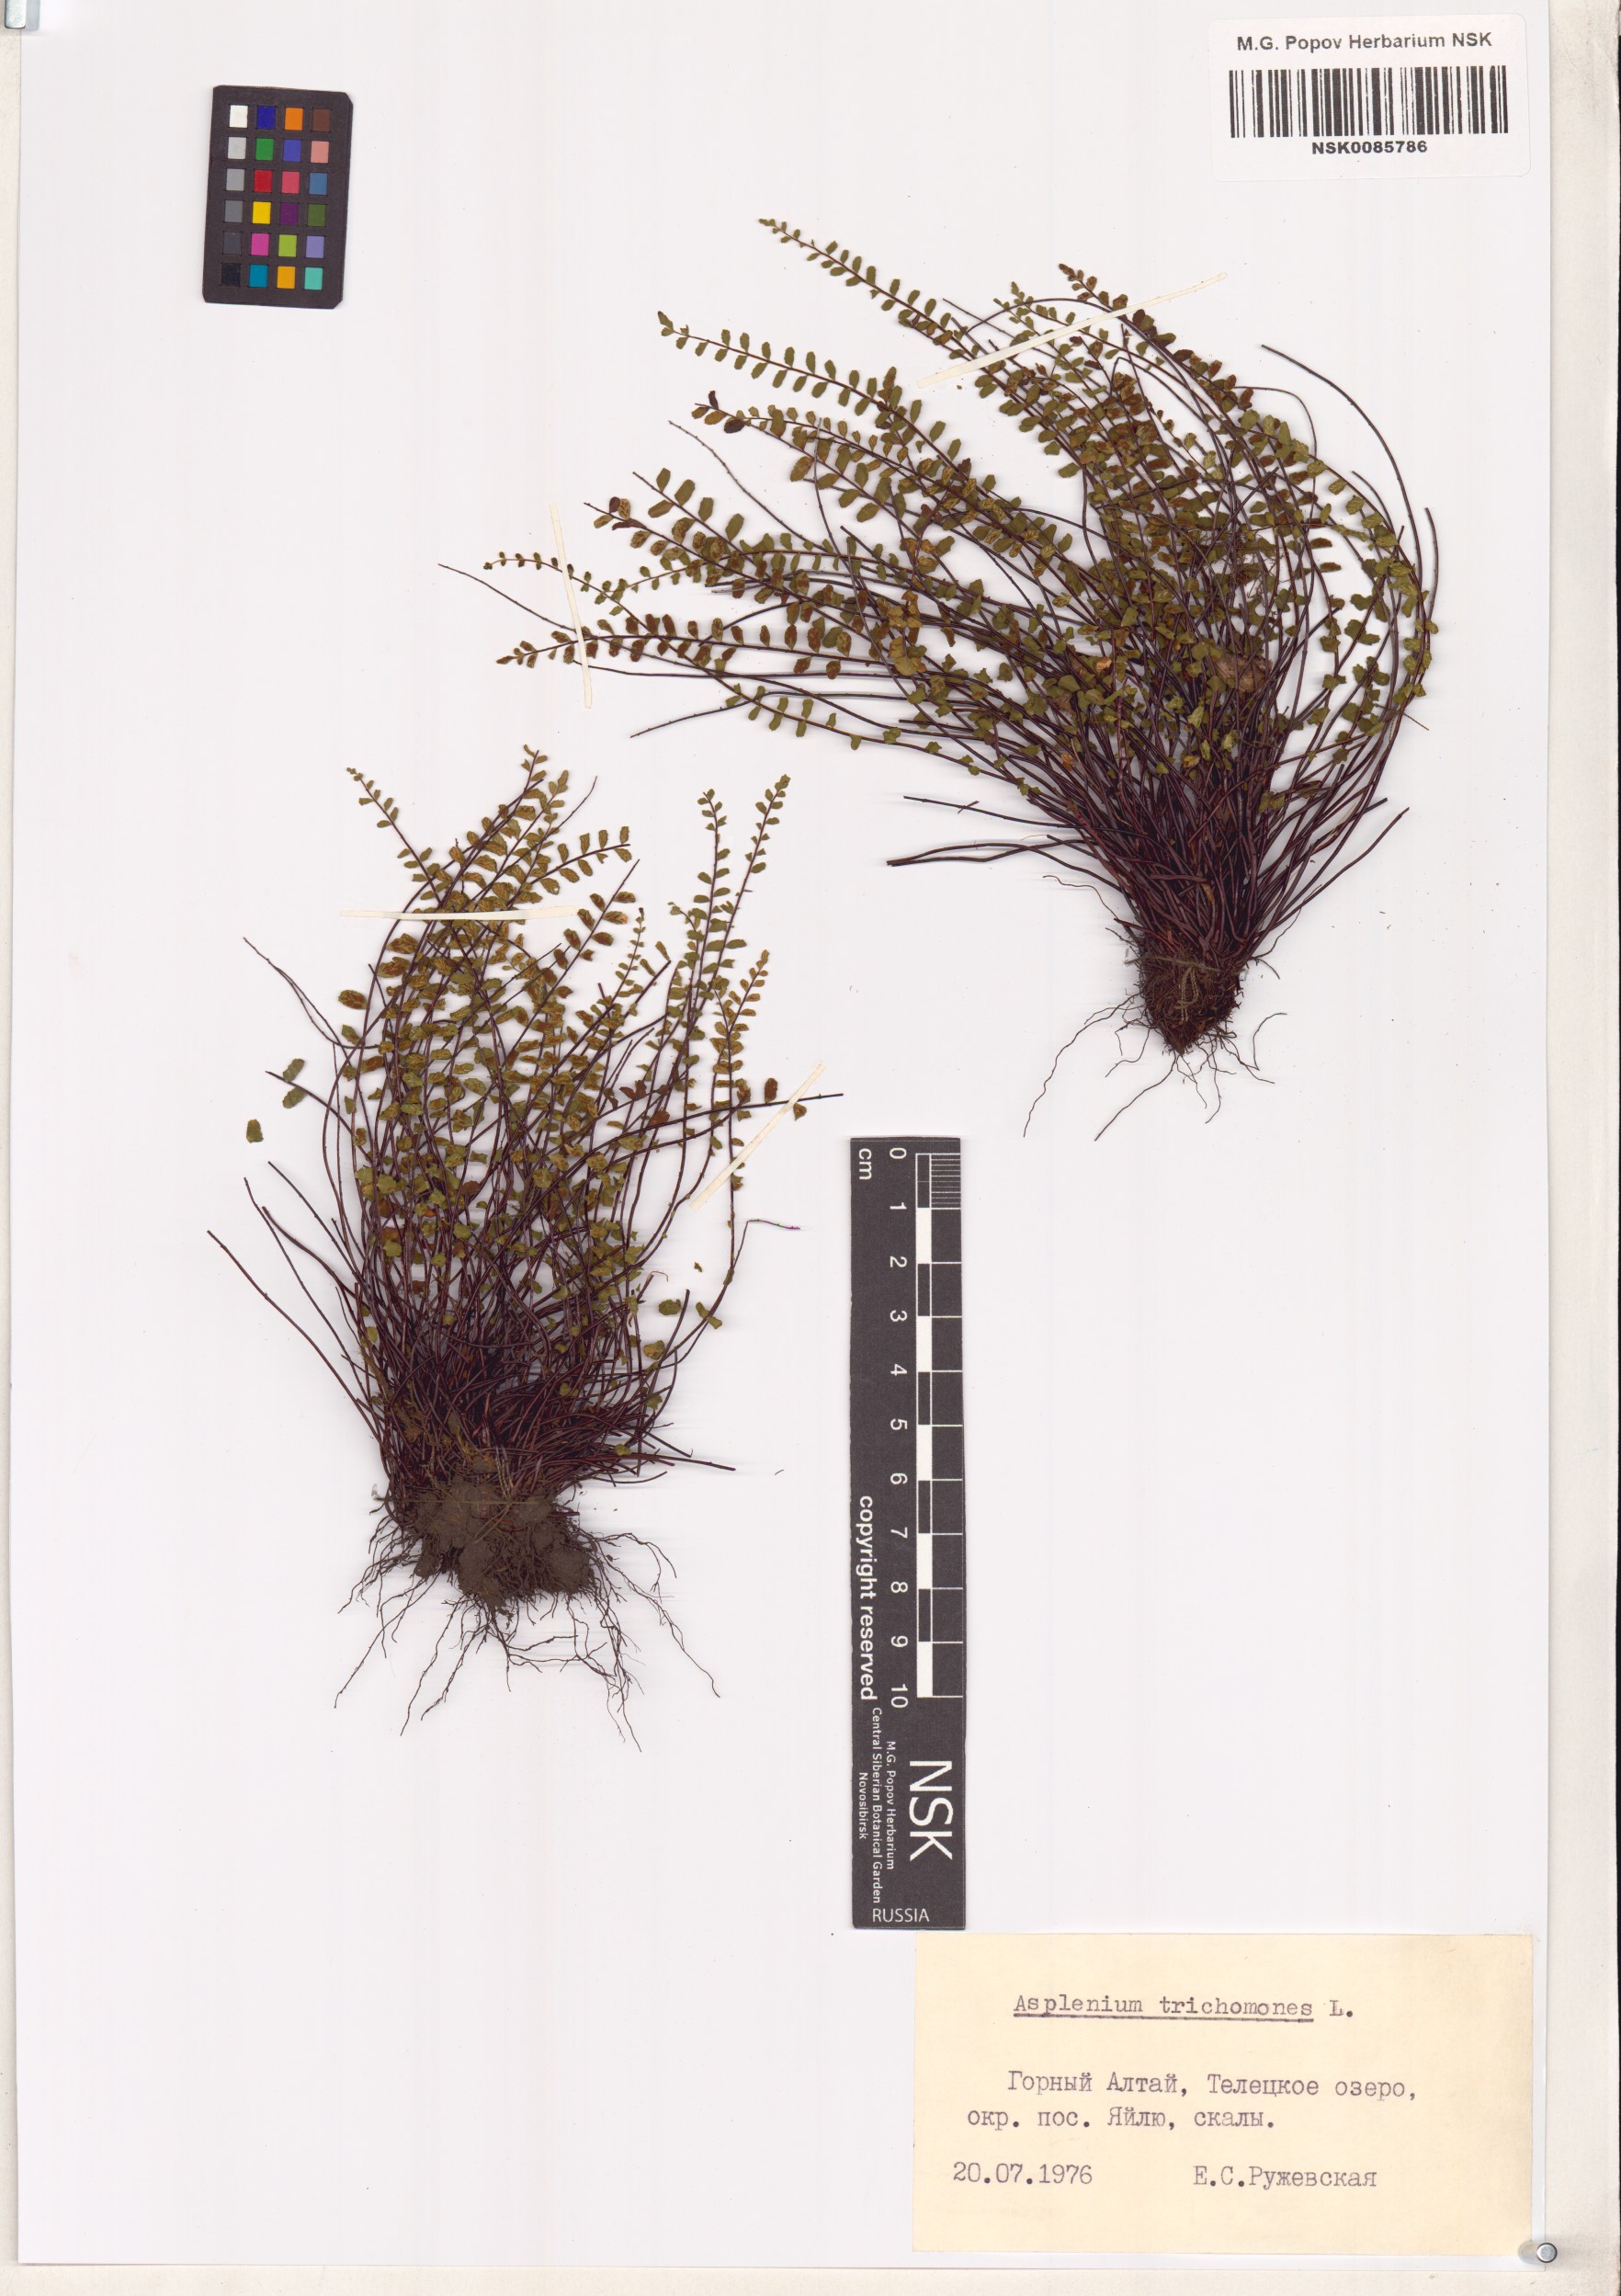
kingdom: Plantae
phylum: Tracheophyta
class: Polypodiopsida
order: Polypodiales
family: Aspleniaceae
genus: Asplenium
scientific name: Asplenium trichomanes
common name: Maidenhair spleenwort
